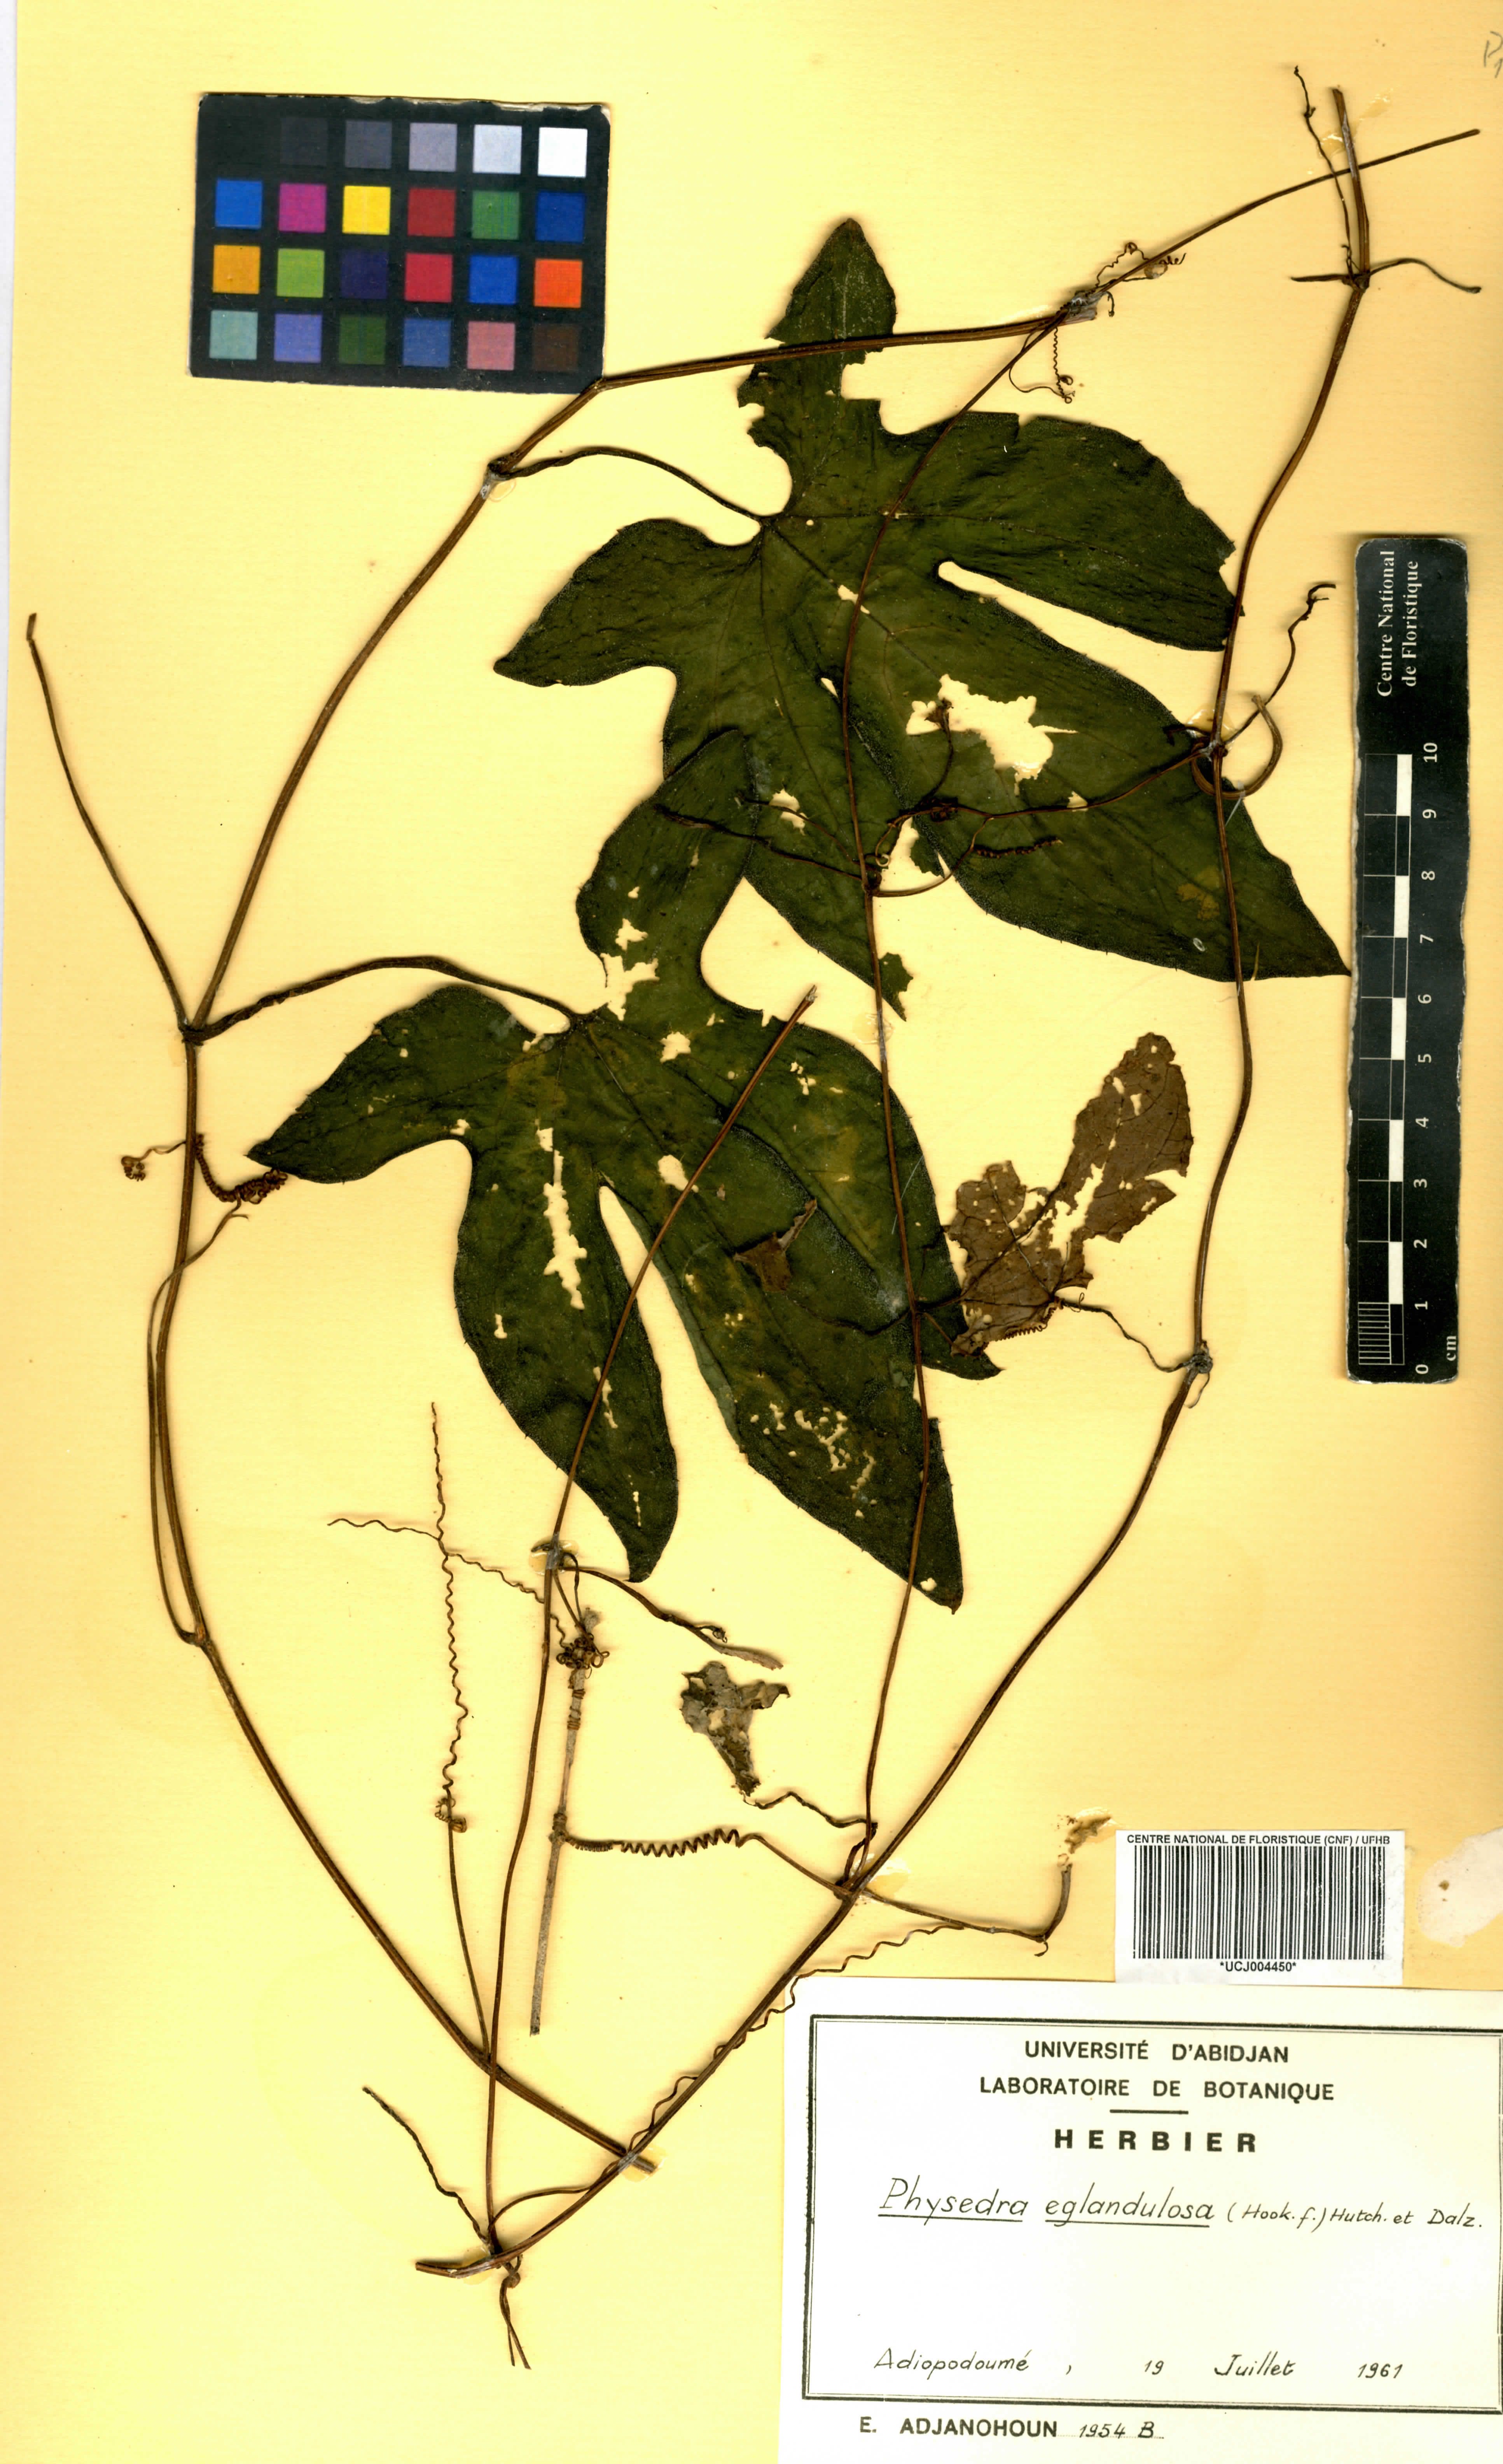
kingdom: Plantae
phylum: Tracheophyta
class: Magnoliopsida
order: Cucurbitales
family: Cucurbitaceae
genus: Ruthalicia
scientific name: Ruthalicia eglandulosa
